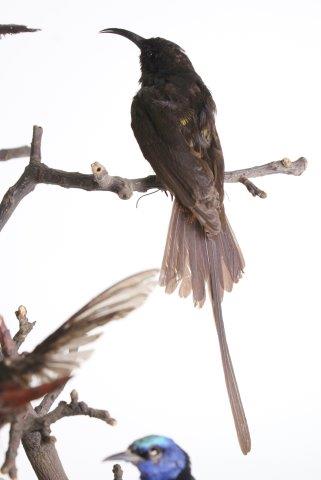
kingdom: Animalia
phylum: Chordata
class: Aves
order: Apodiformes
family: Trochilidae
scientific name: Trochilidae
